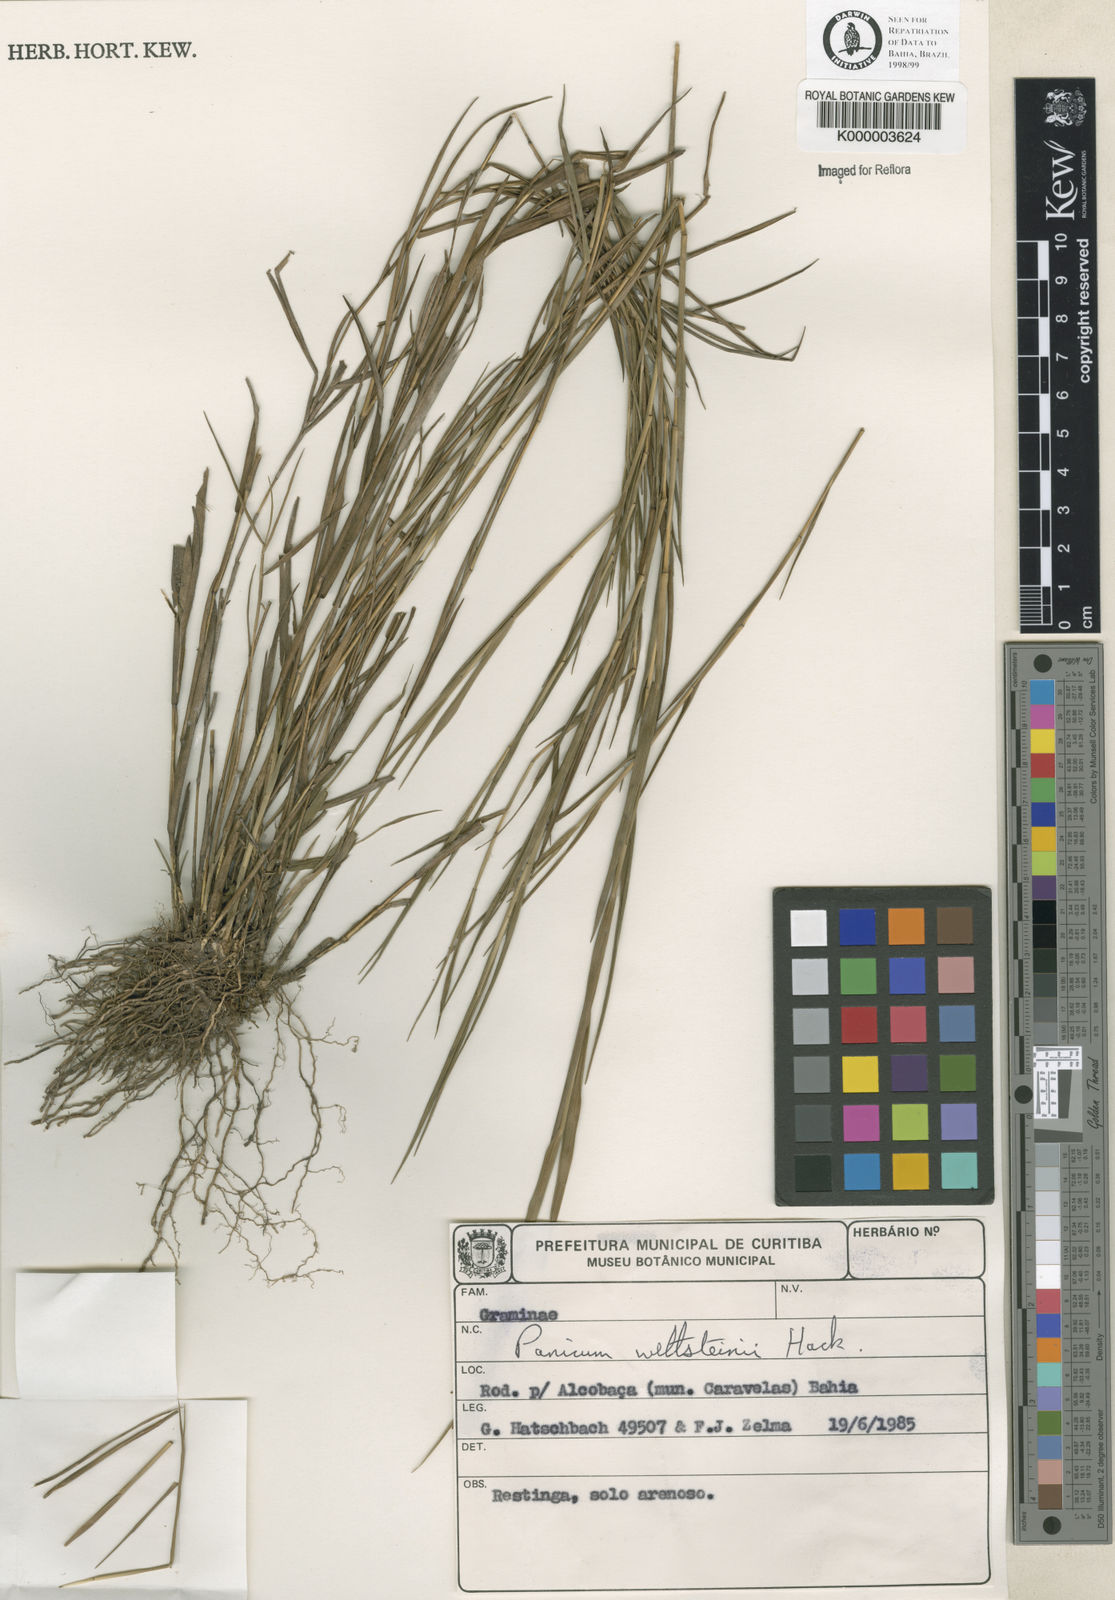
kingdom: Plantae
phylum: Tracheophyta
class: Liliopsida
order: Poales
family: Poaceae
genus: Trichanthecium
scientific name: Trichanthecium wettsteinii
